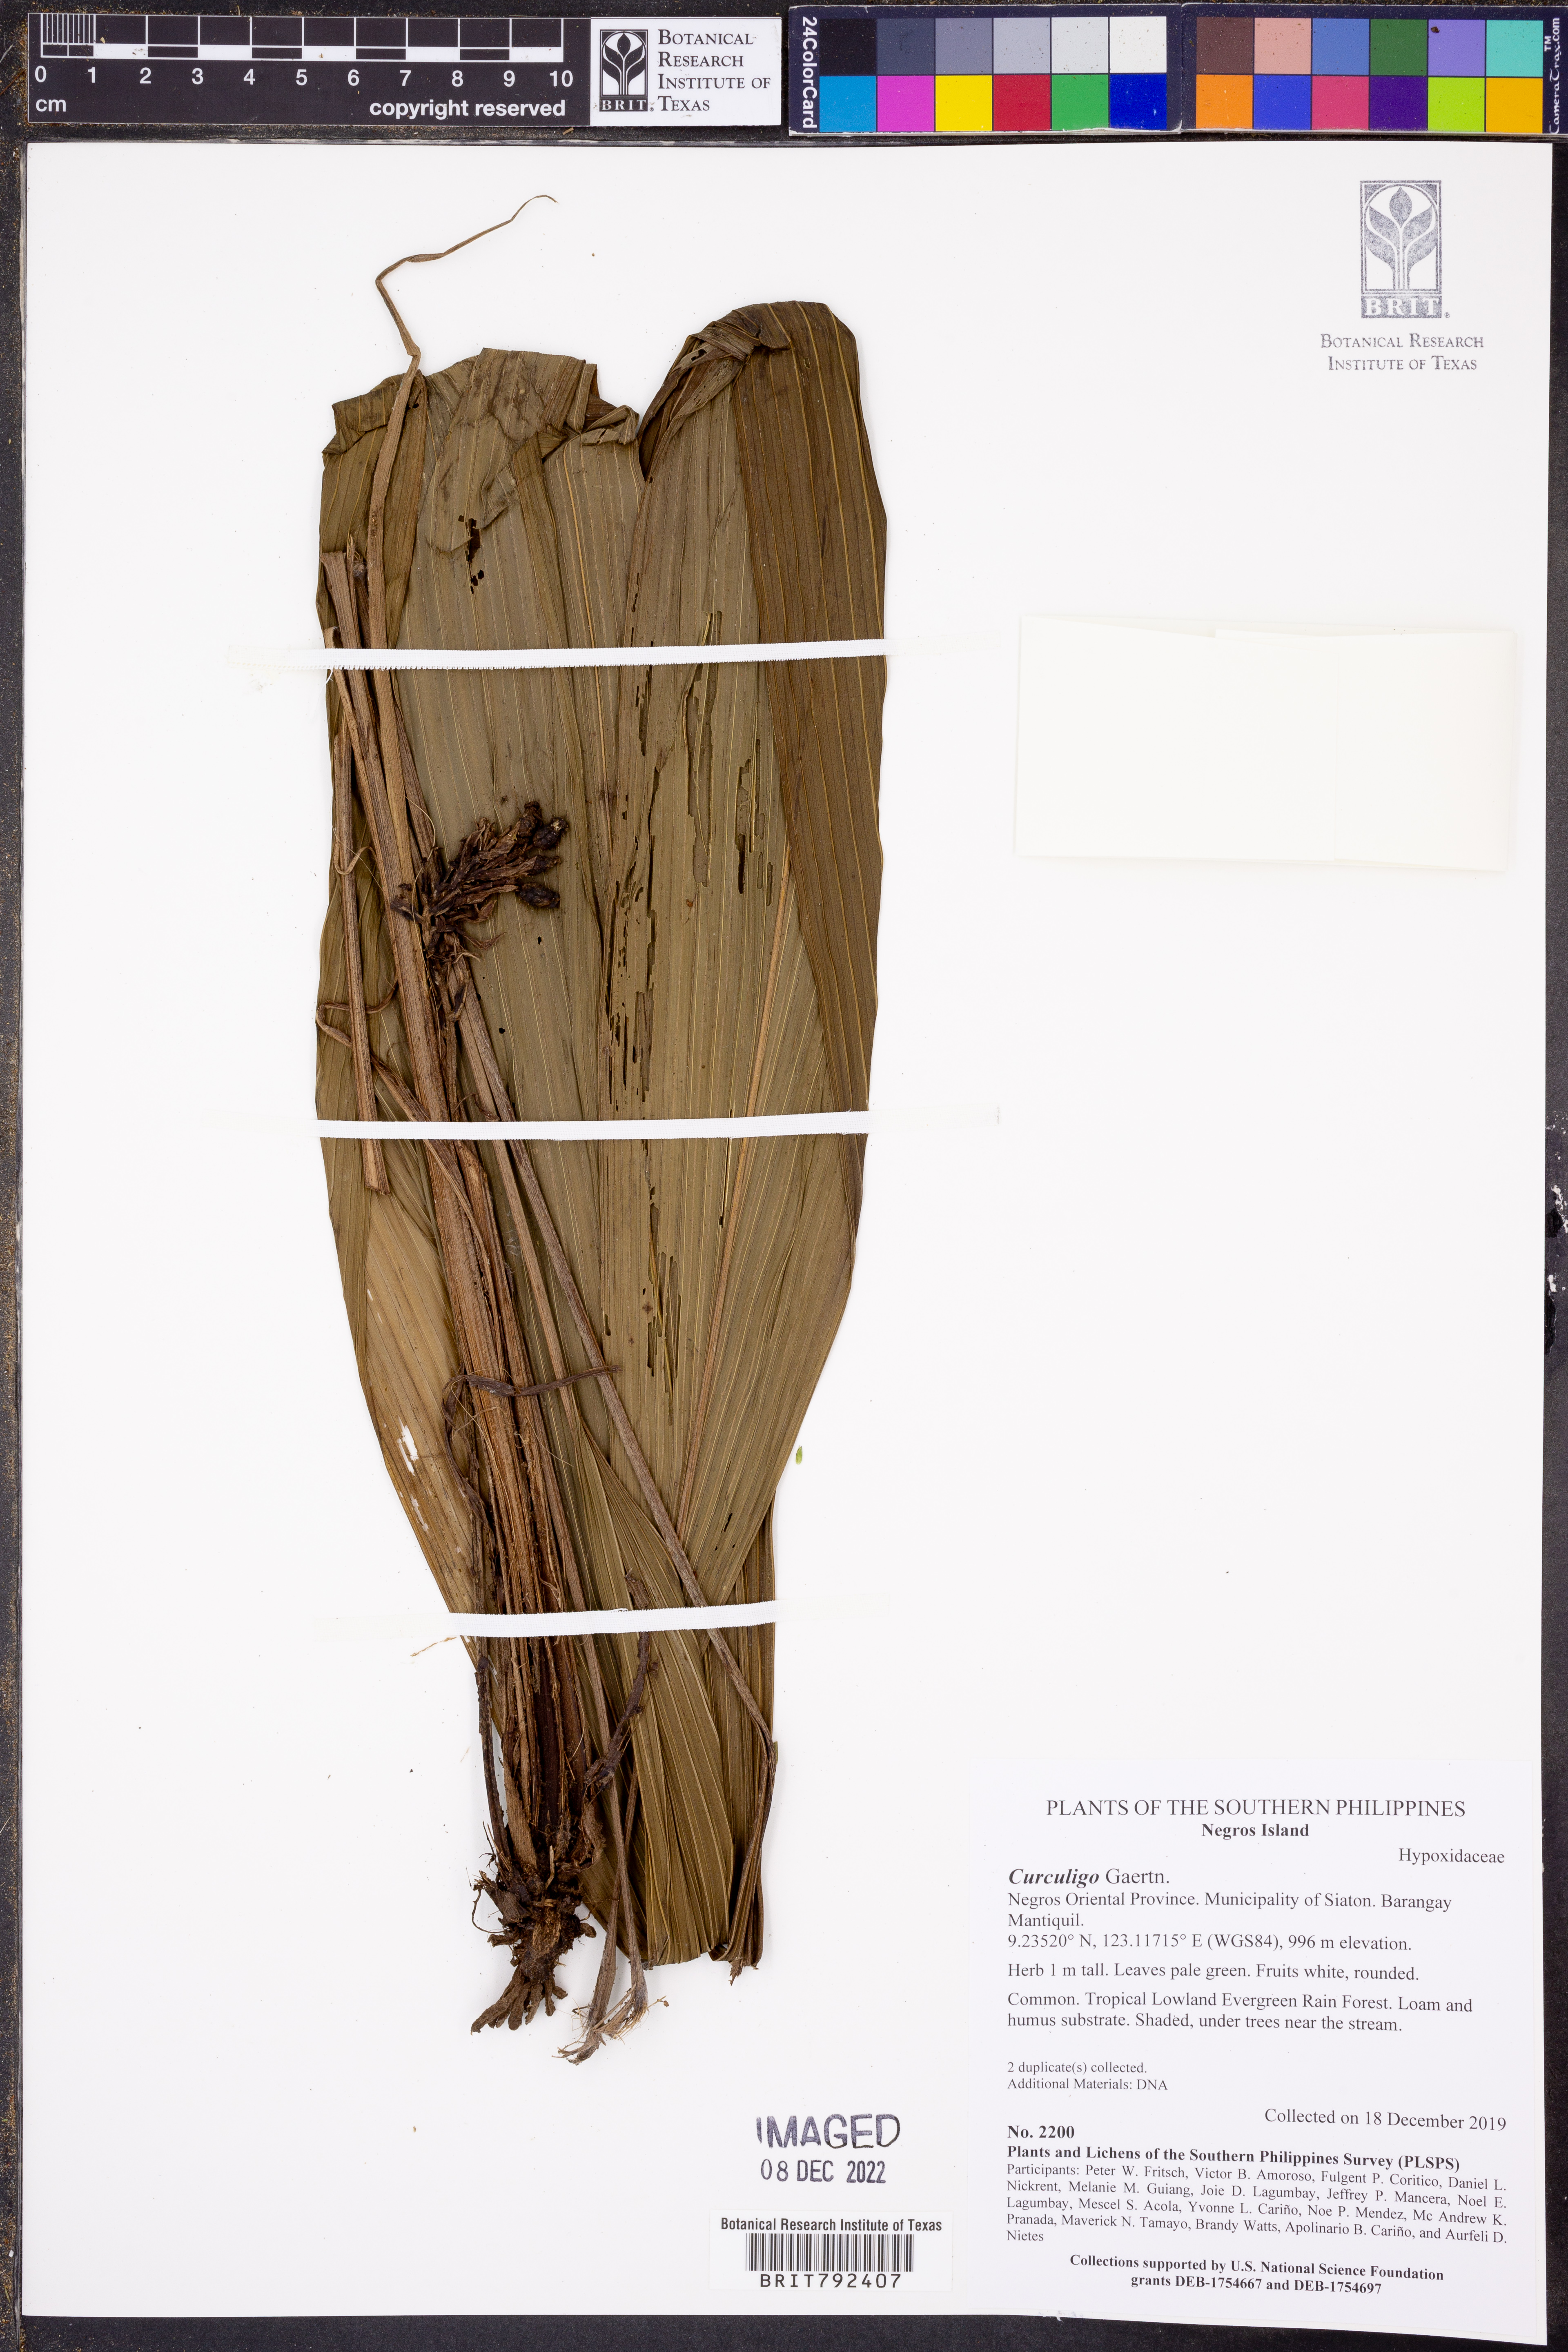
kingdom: Plantae
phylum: Tracheophyta
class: Liliopsida
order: Asparagales
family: Hypoxidaceae
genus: Curculigo
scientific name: Curculigo
